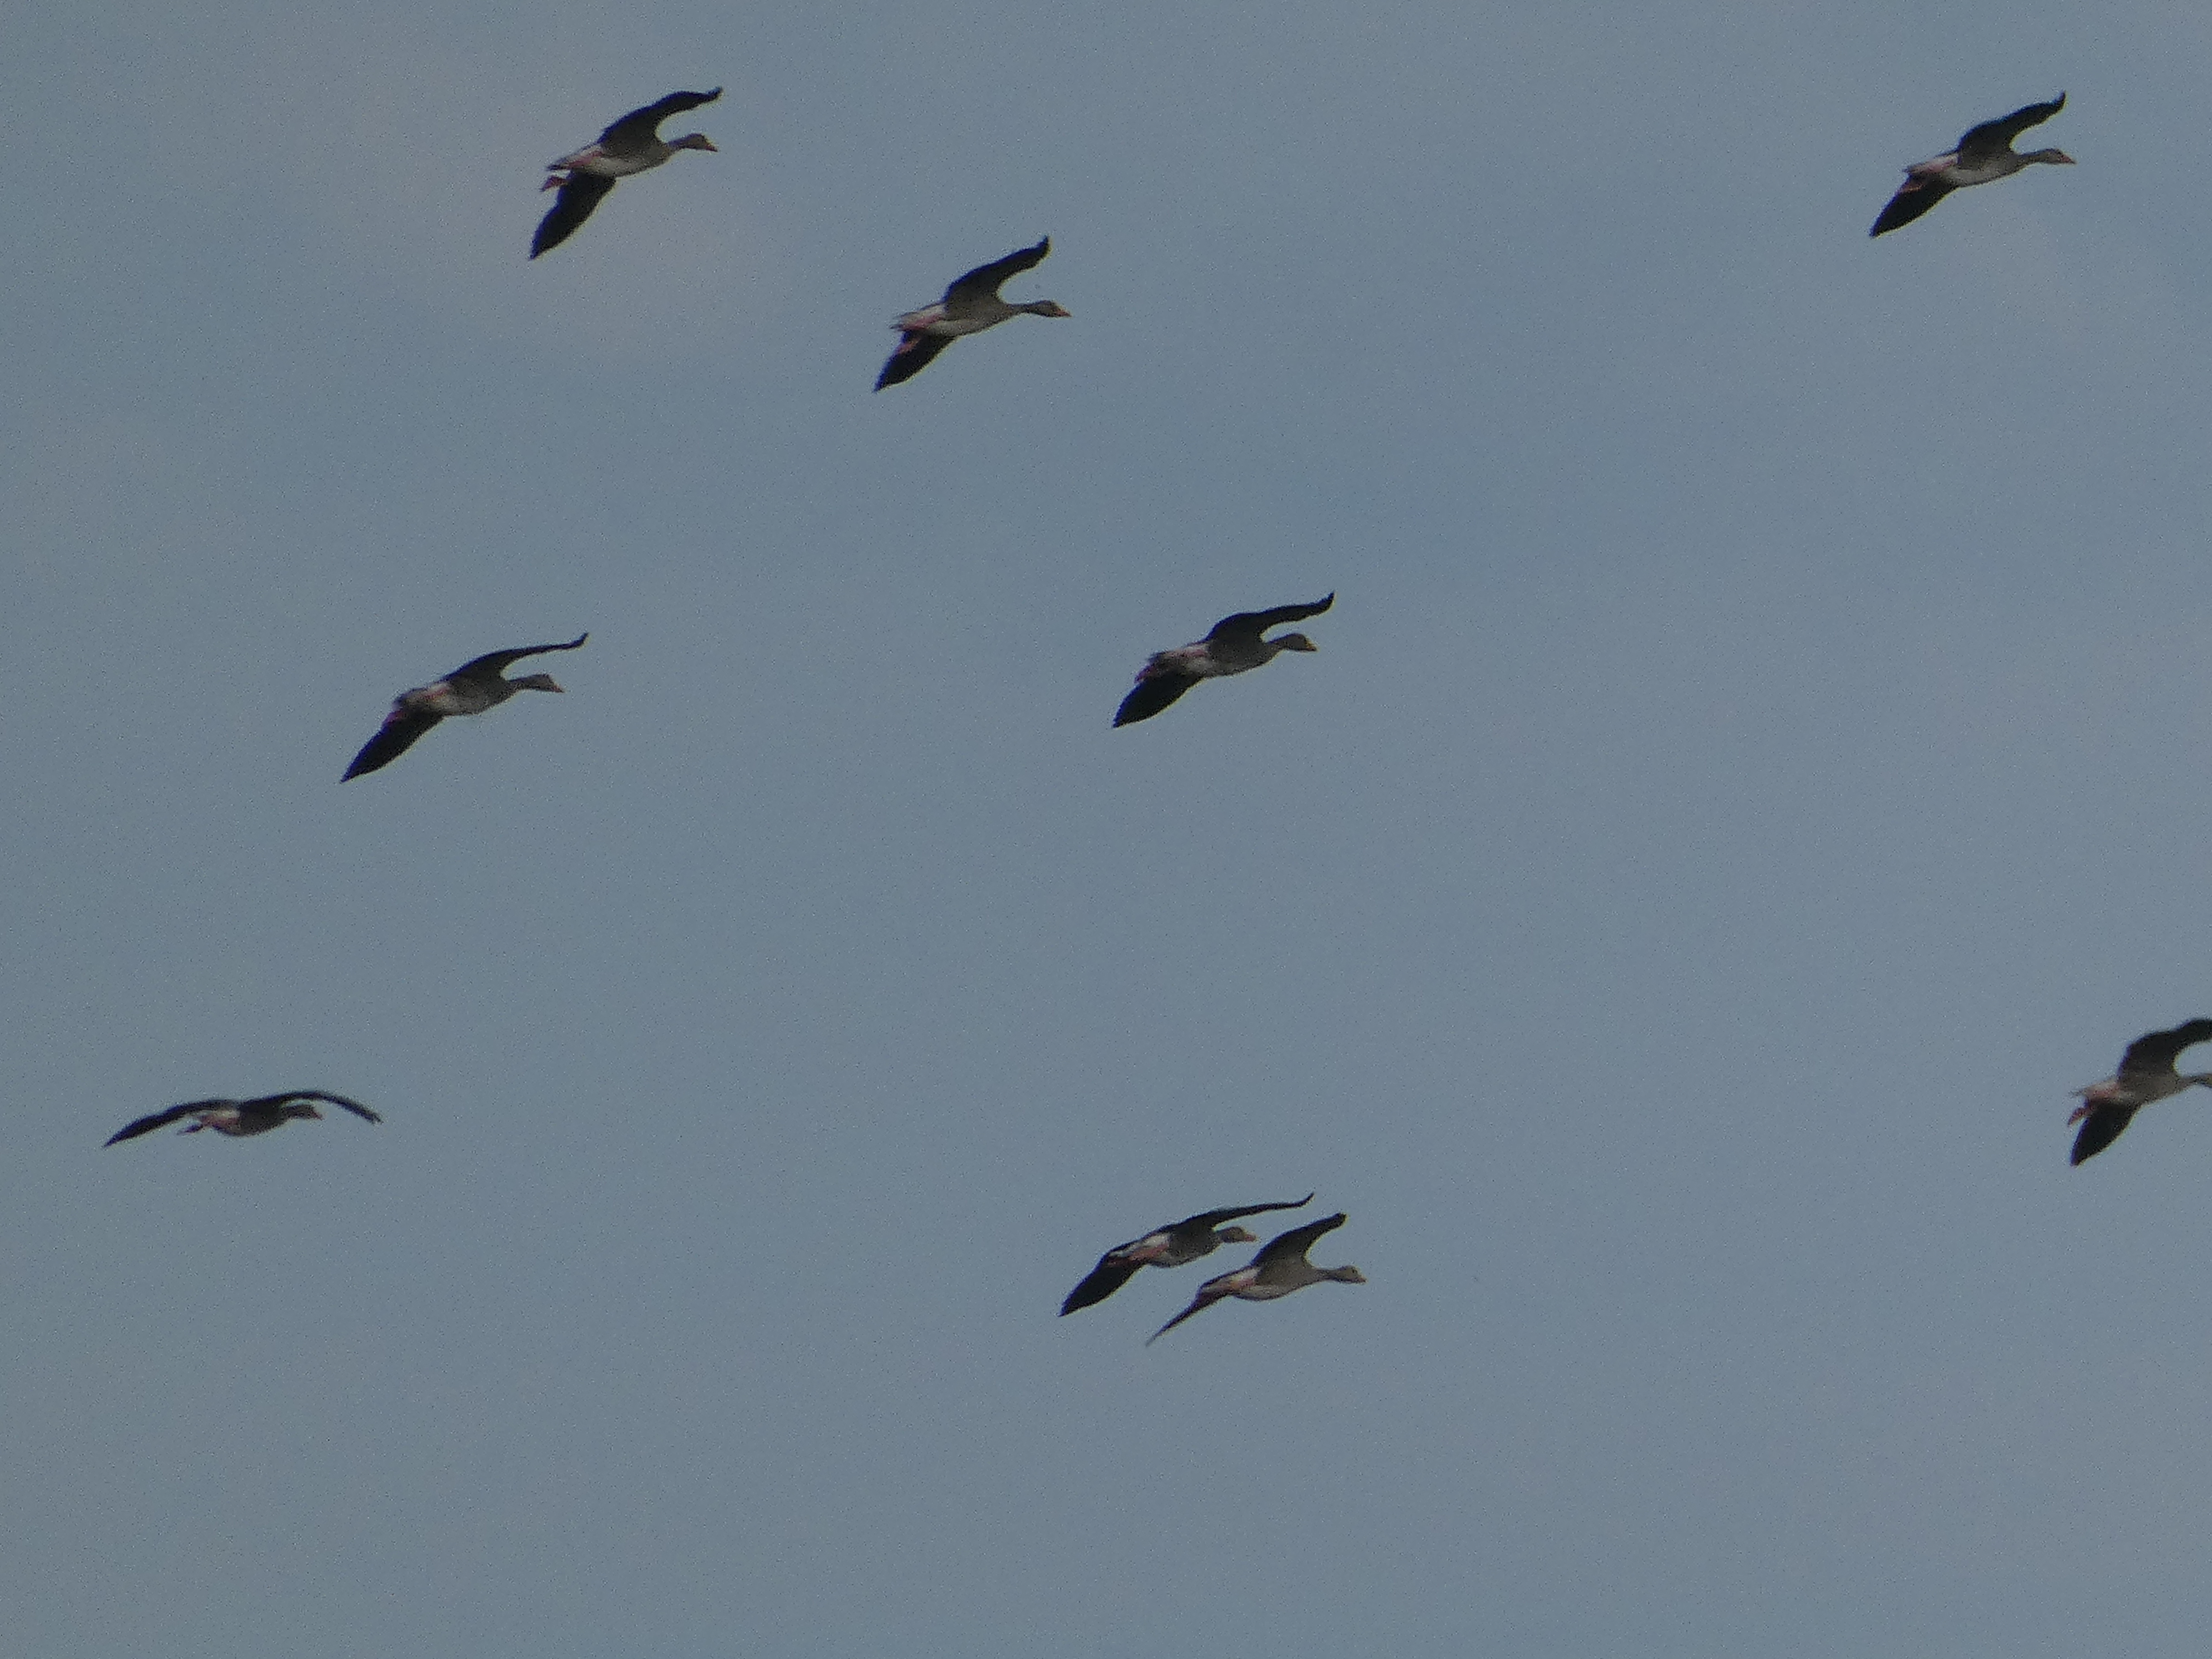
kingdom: Animalia
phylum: Chordata
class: Aves
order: Anseriformes
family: Anatidae
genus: Anser
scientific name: Anser anser
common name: Grågås
